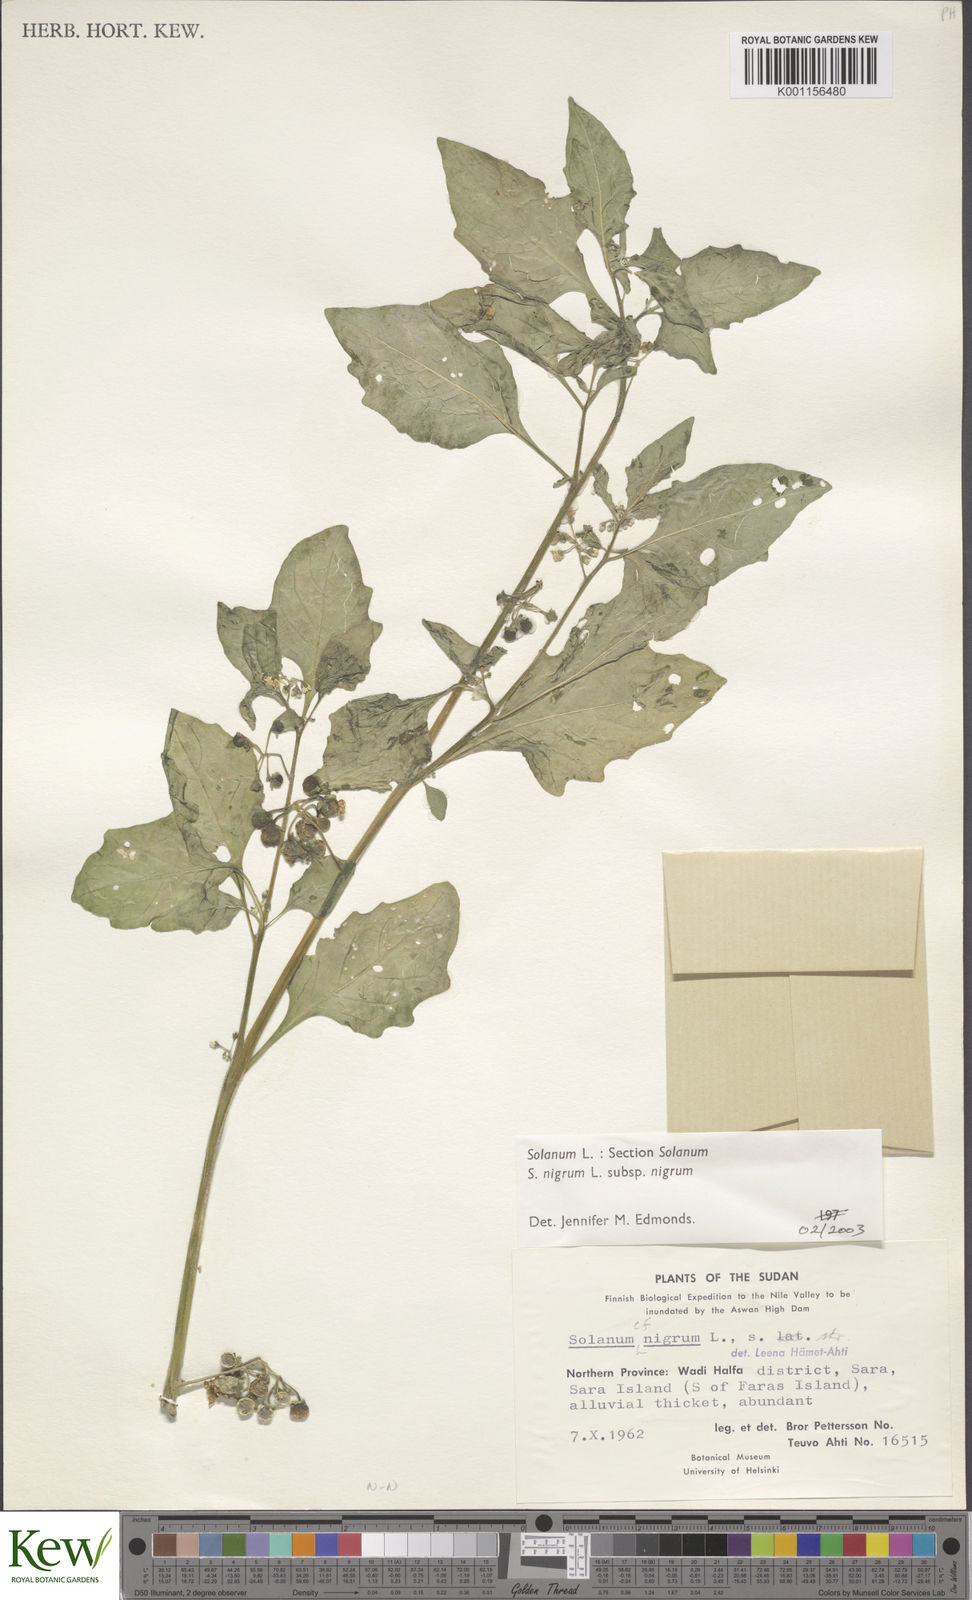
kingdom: Plantae
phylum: Tracheophyta
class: Magnoliopsida
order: Solanales
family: Solanaceae
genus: Solanum
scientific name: Solanum nigrum
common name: Black nightshade
